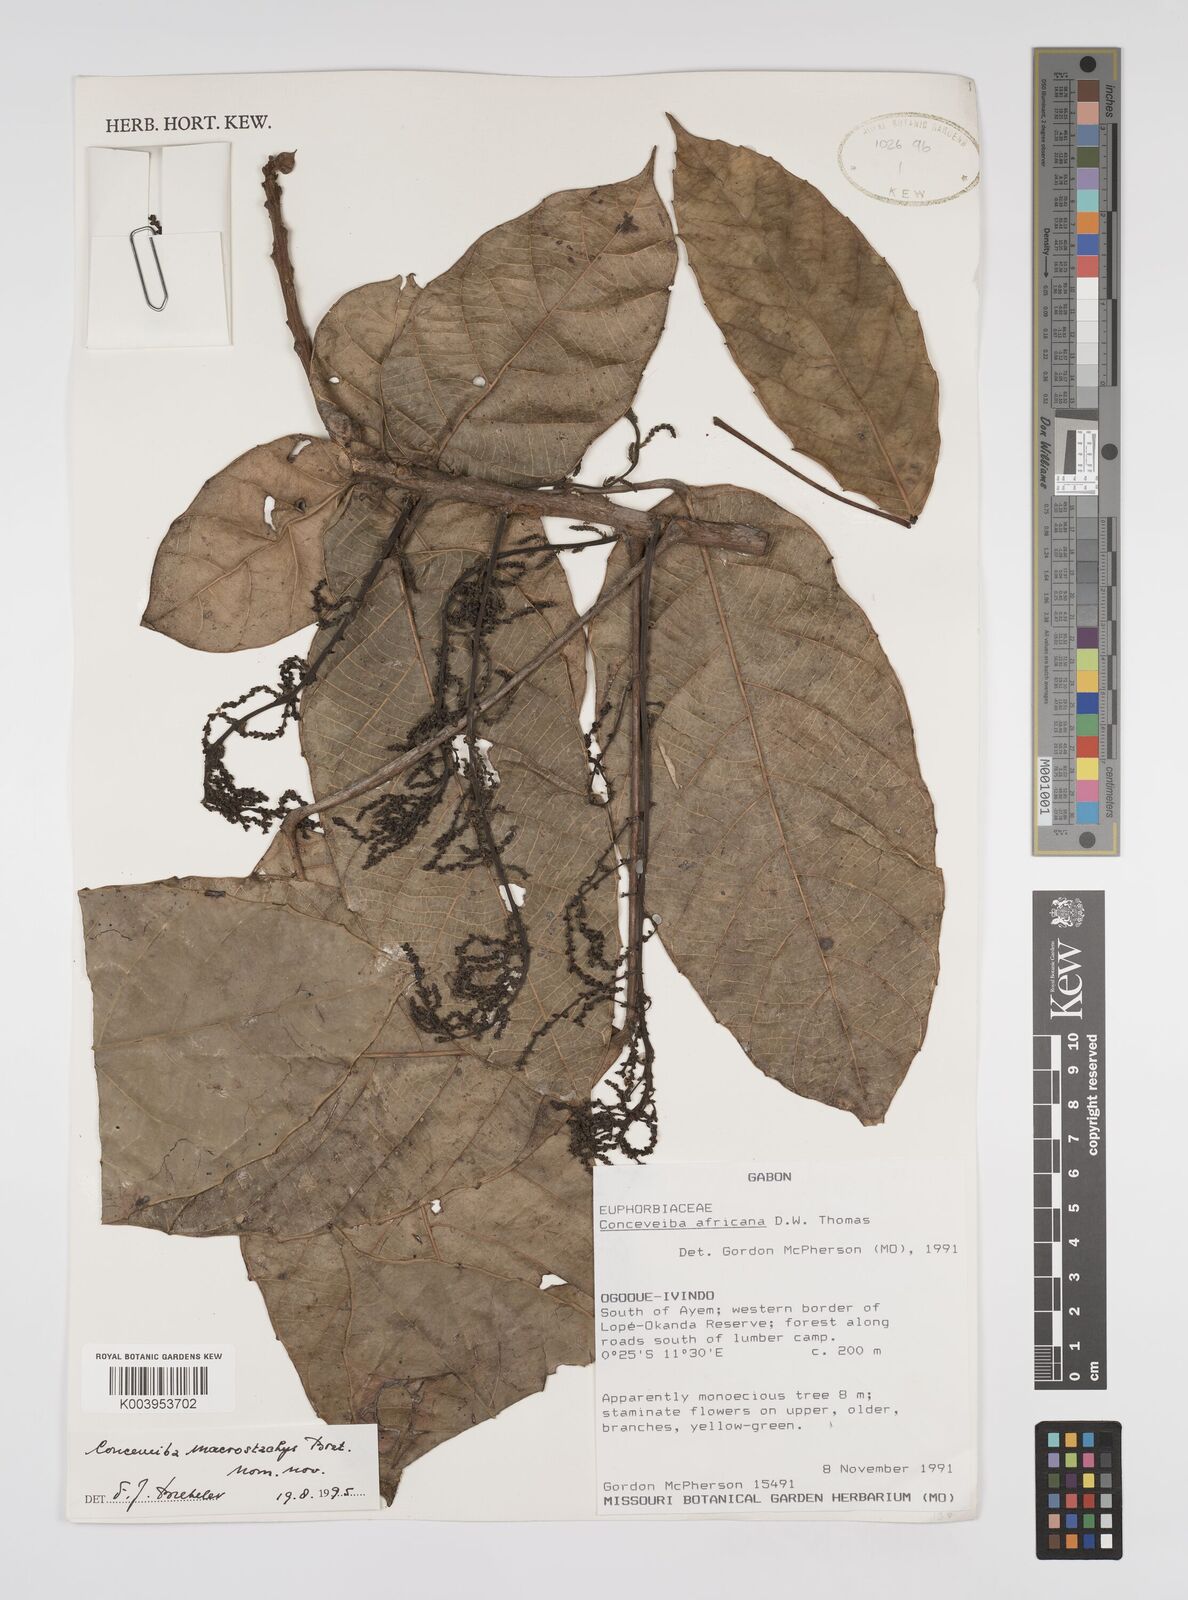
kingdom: Plantae
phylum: Tracheophyta
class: Magnoliopsida
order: Malpighiales
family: Euphorbiaceae
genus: Aubletiana
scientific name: Aubletiana macrostachys
